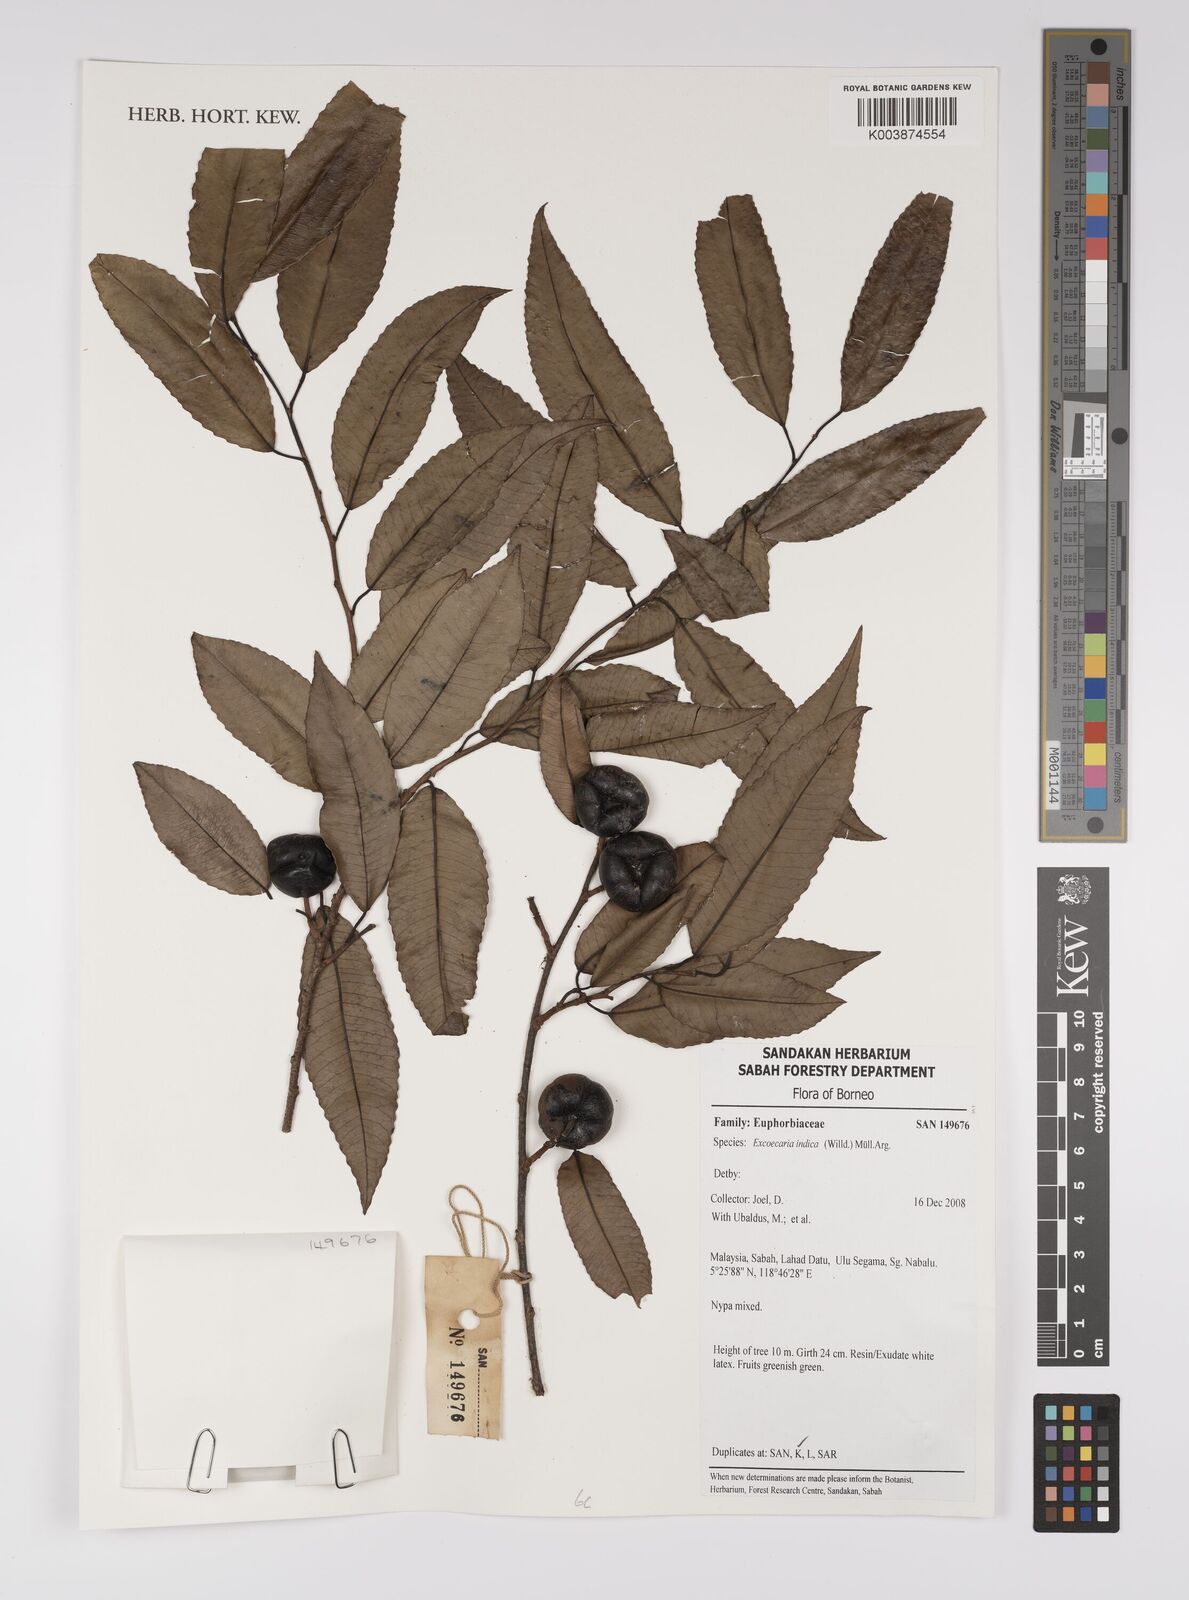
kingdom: Plantae
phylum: Tracheophyta
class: Magnoliopsida
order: Malpighiales
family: Euphorbiaceae
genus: Shirakiopsis
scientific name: Shirakiopsis indica
